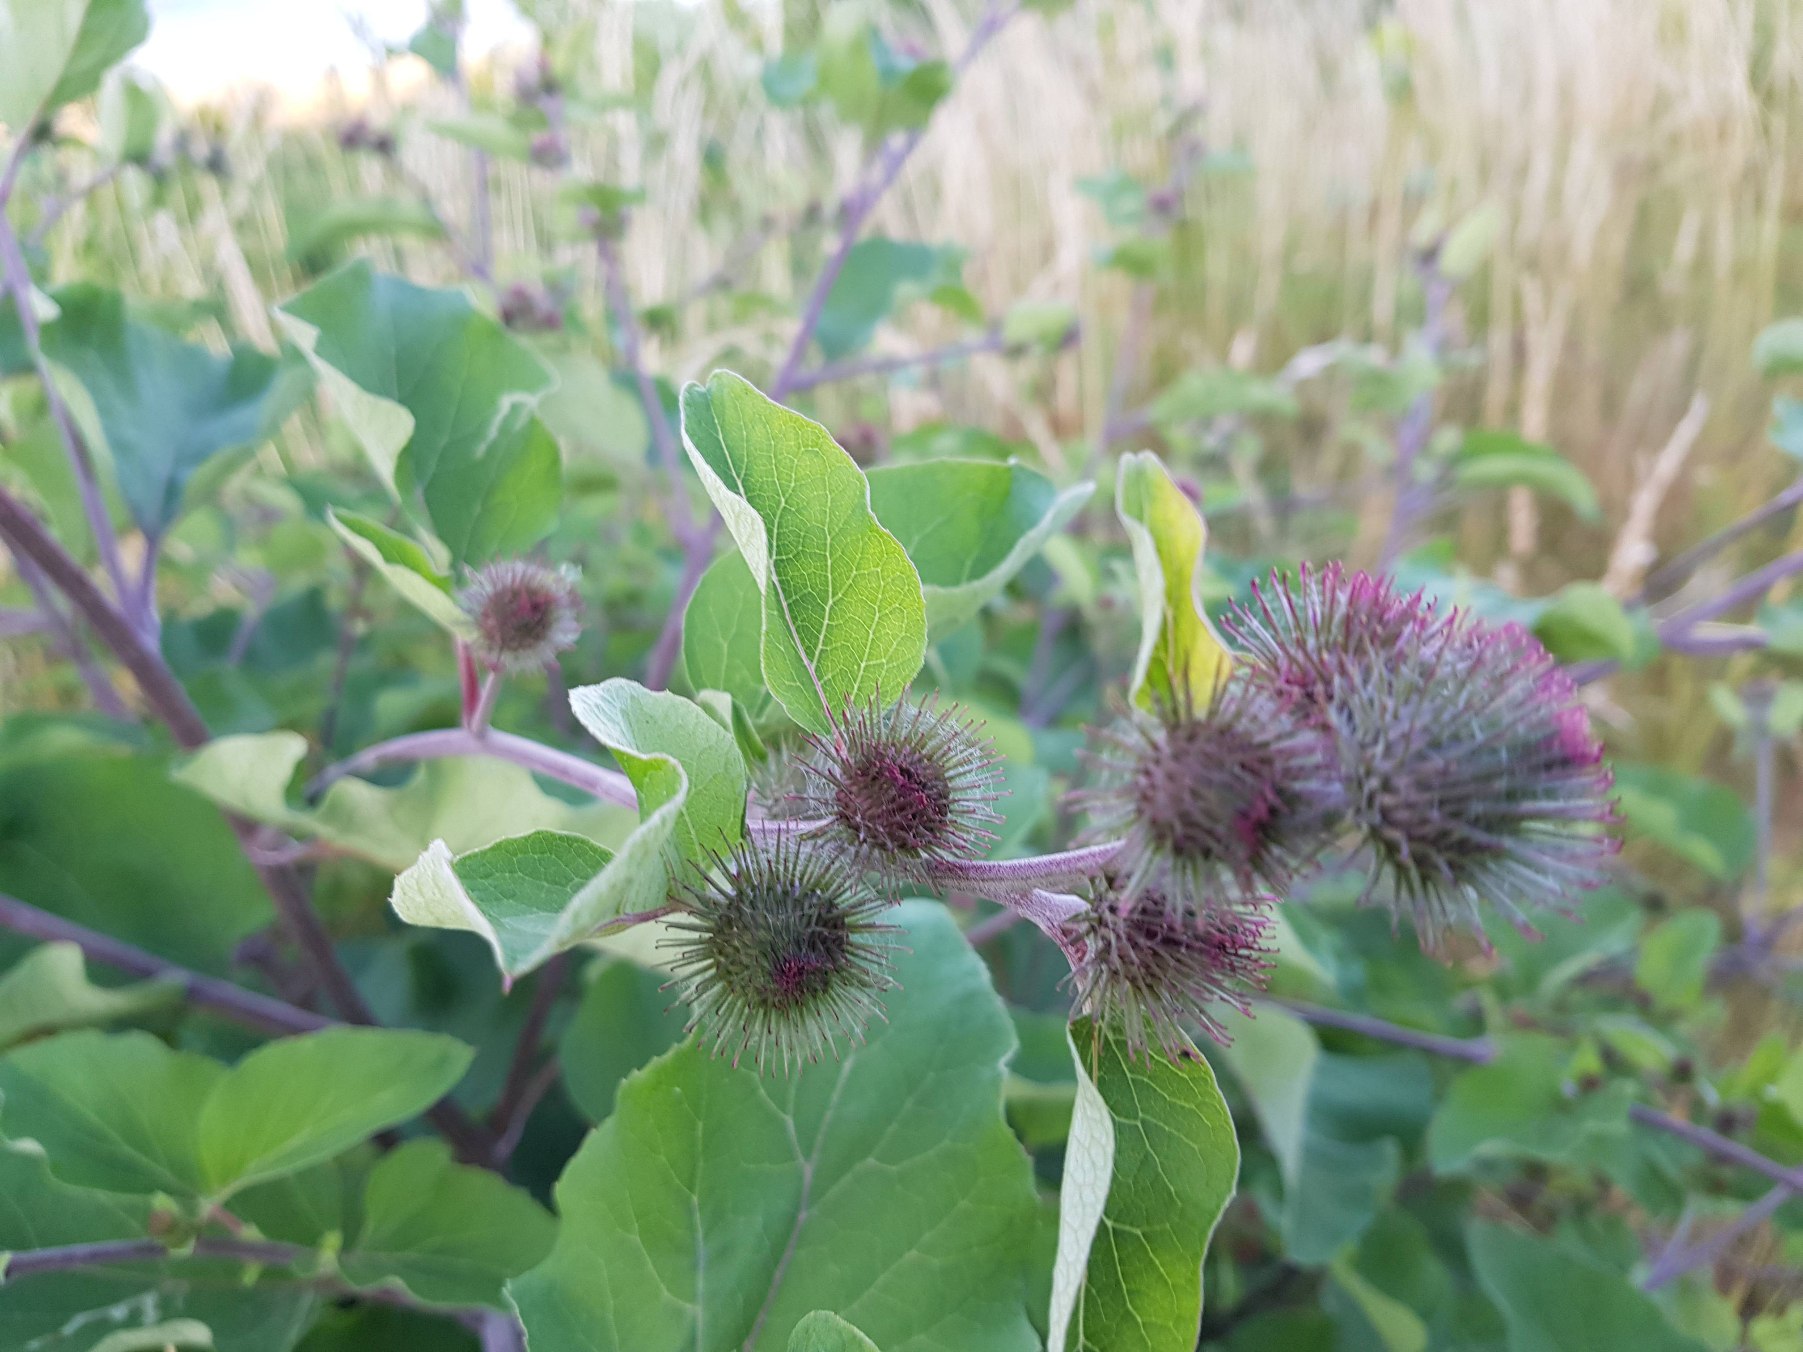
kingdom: Plantae
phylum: Tracheophyta
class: Magnoliopsida
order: Asterales
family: Asteraceae
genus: Arctium
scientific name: Arctium nemorosum
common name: Skov-burre
